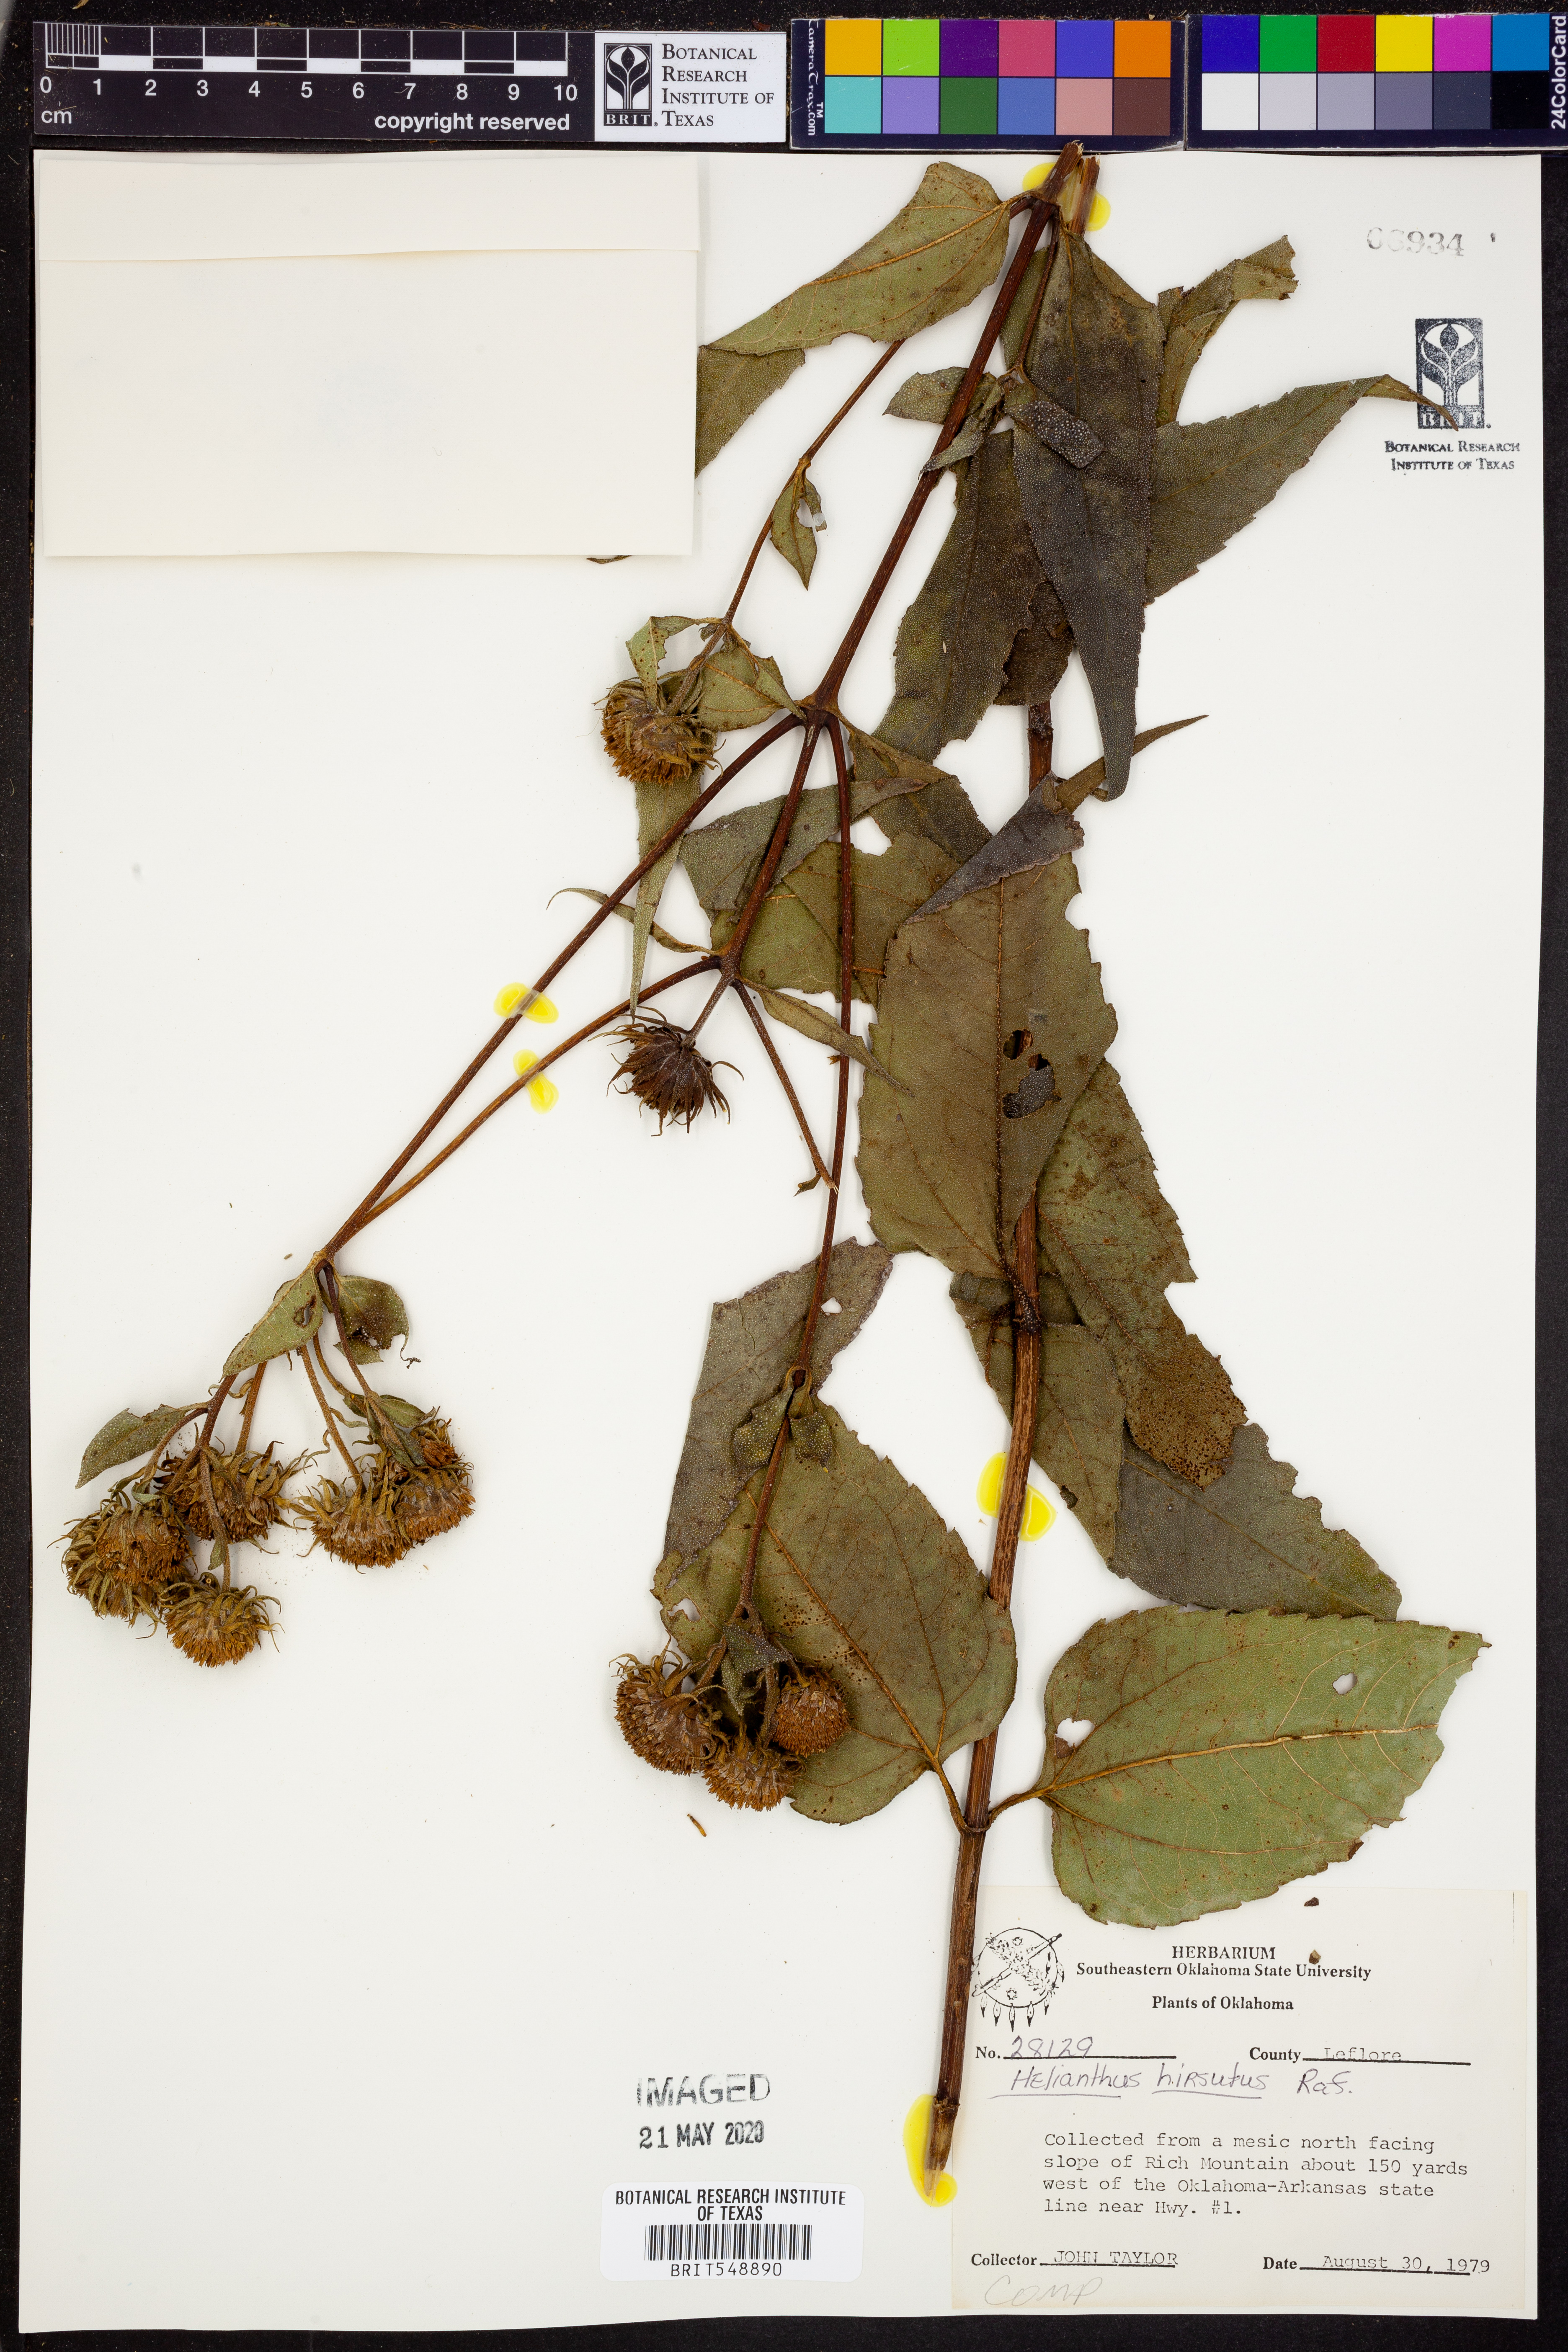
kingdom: Plantae
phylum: Tracheophyta
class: Magnoliopsida
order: Asterales
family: Asteraceae
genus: Helianthus
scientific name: Helianthus hirsutus
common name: Hairy sunflower
